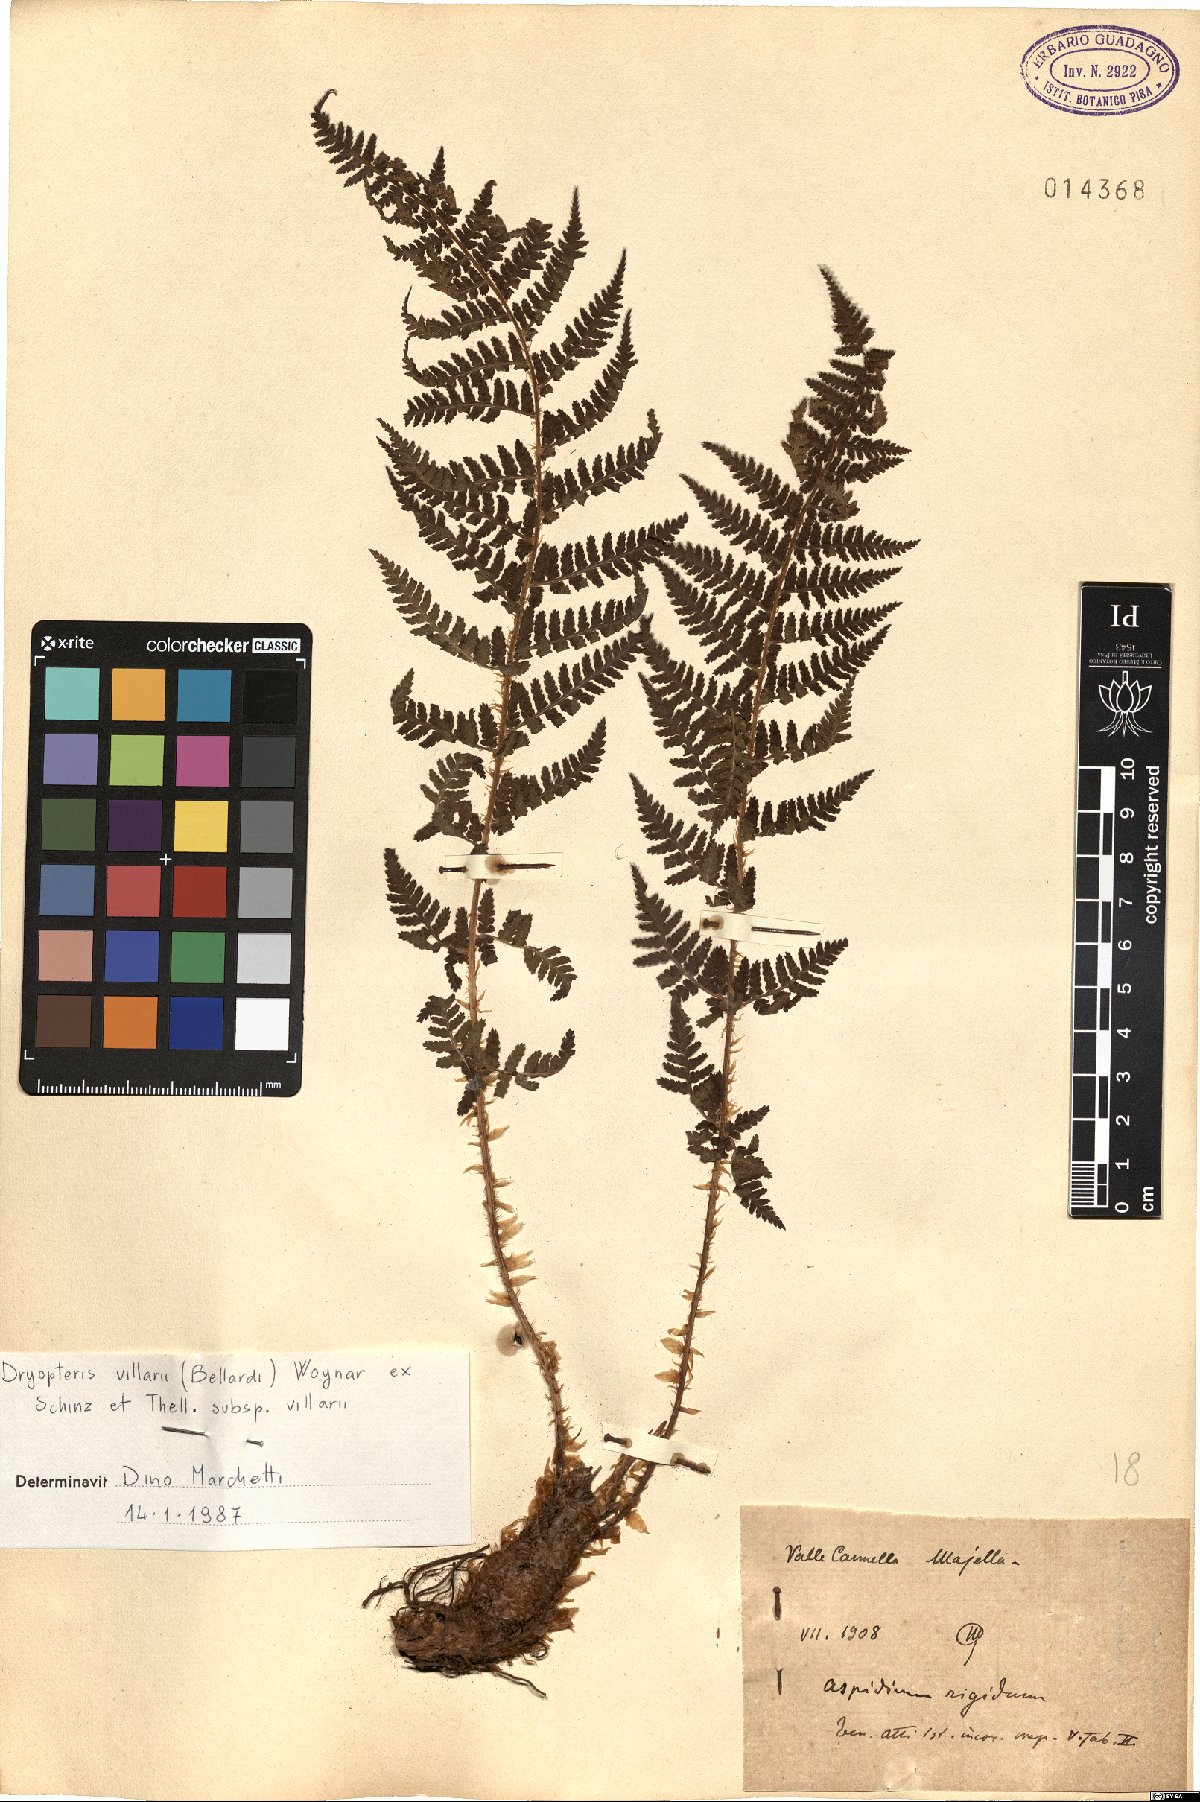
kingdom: Plantae
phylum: Tracheophyta
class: Polypodiopsida
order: Polypodiales
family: Dryopteridaceae
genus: Dryopteris
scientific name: Dryopteris villarii
